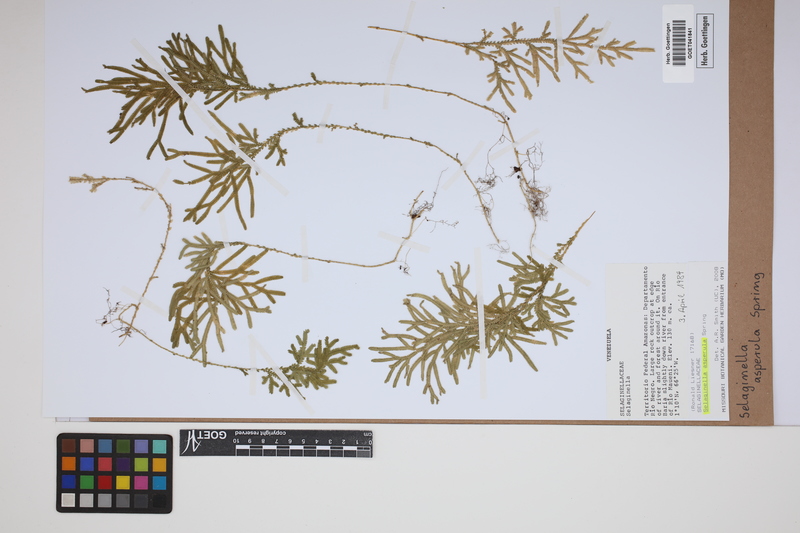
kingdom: Plantae
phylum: Tracheophyta
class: Lycopodiopsida
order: Selaginellales
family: Selaginellaceae
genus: Selaginella
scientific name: Selaginella asperula
